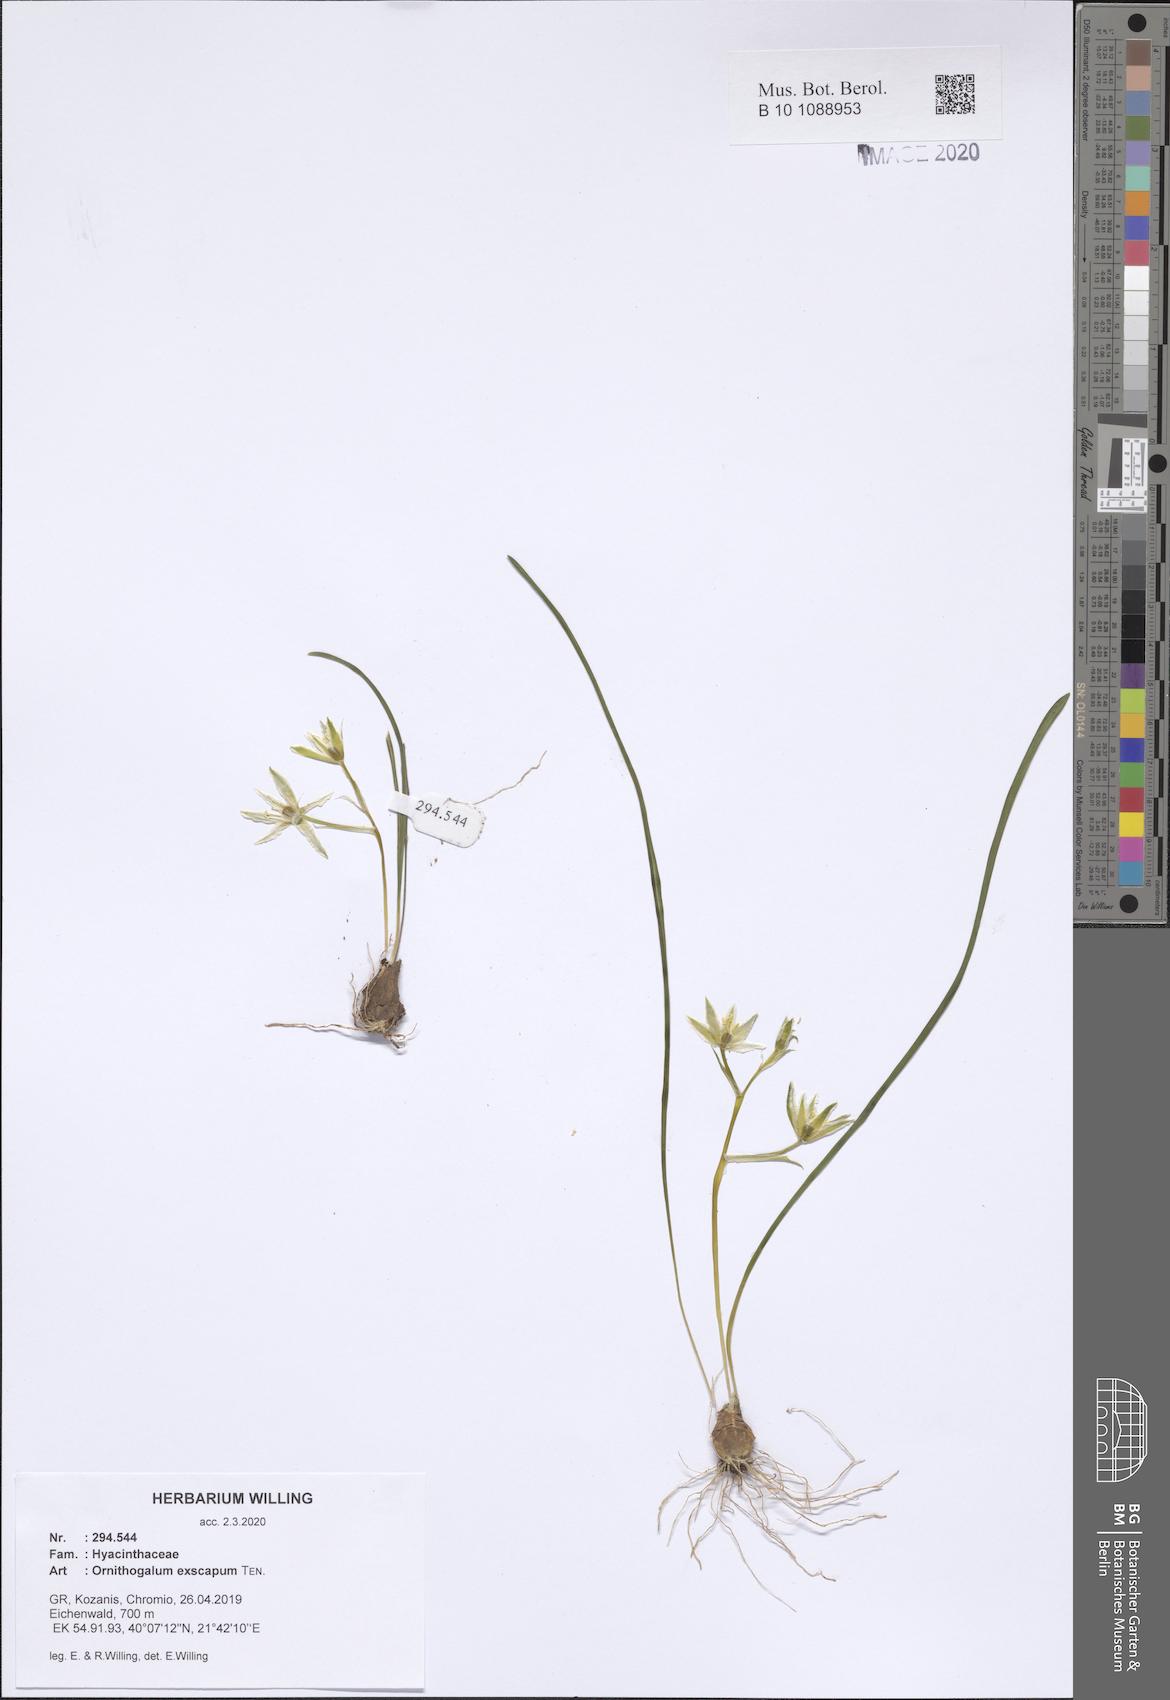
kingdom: Plantae
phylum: Tracheophyta
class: Liliopsida
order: Asparagales
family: Asparagaceae
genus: Ornithogalum
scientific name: Ornithogalum exscapum
